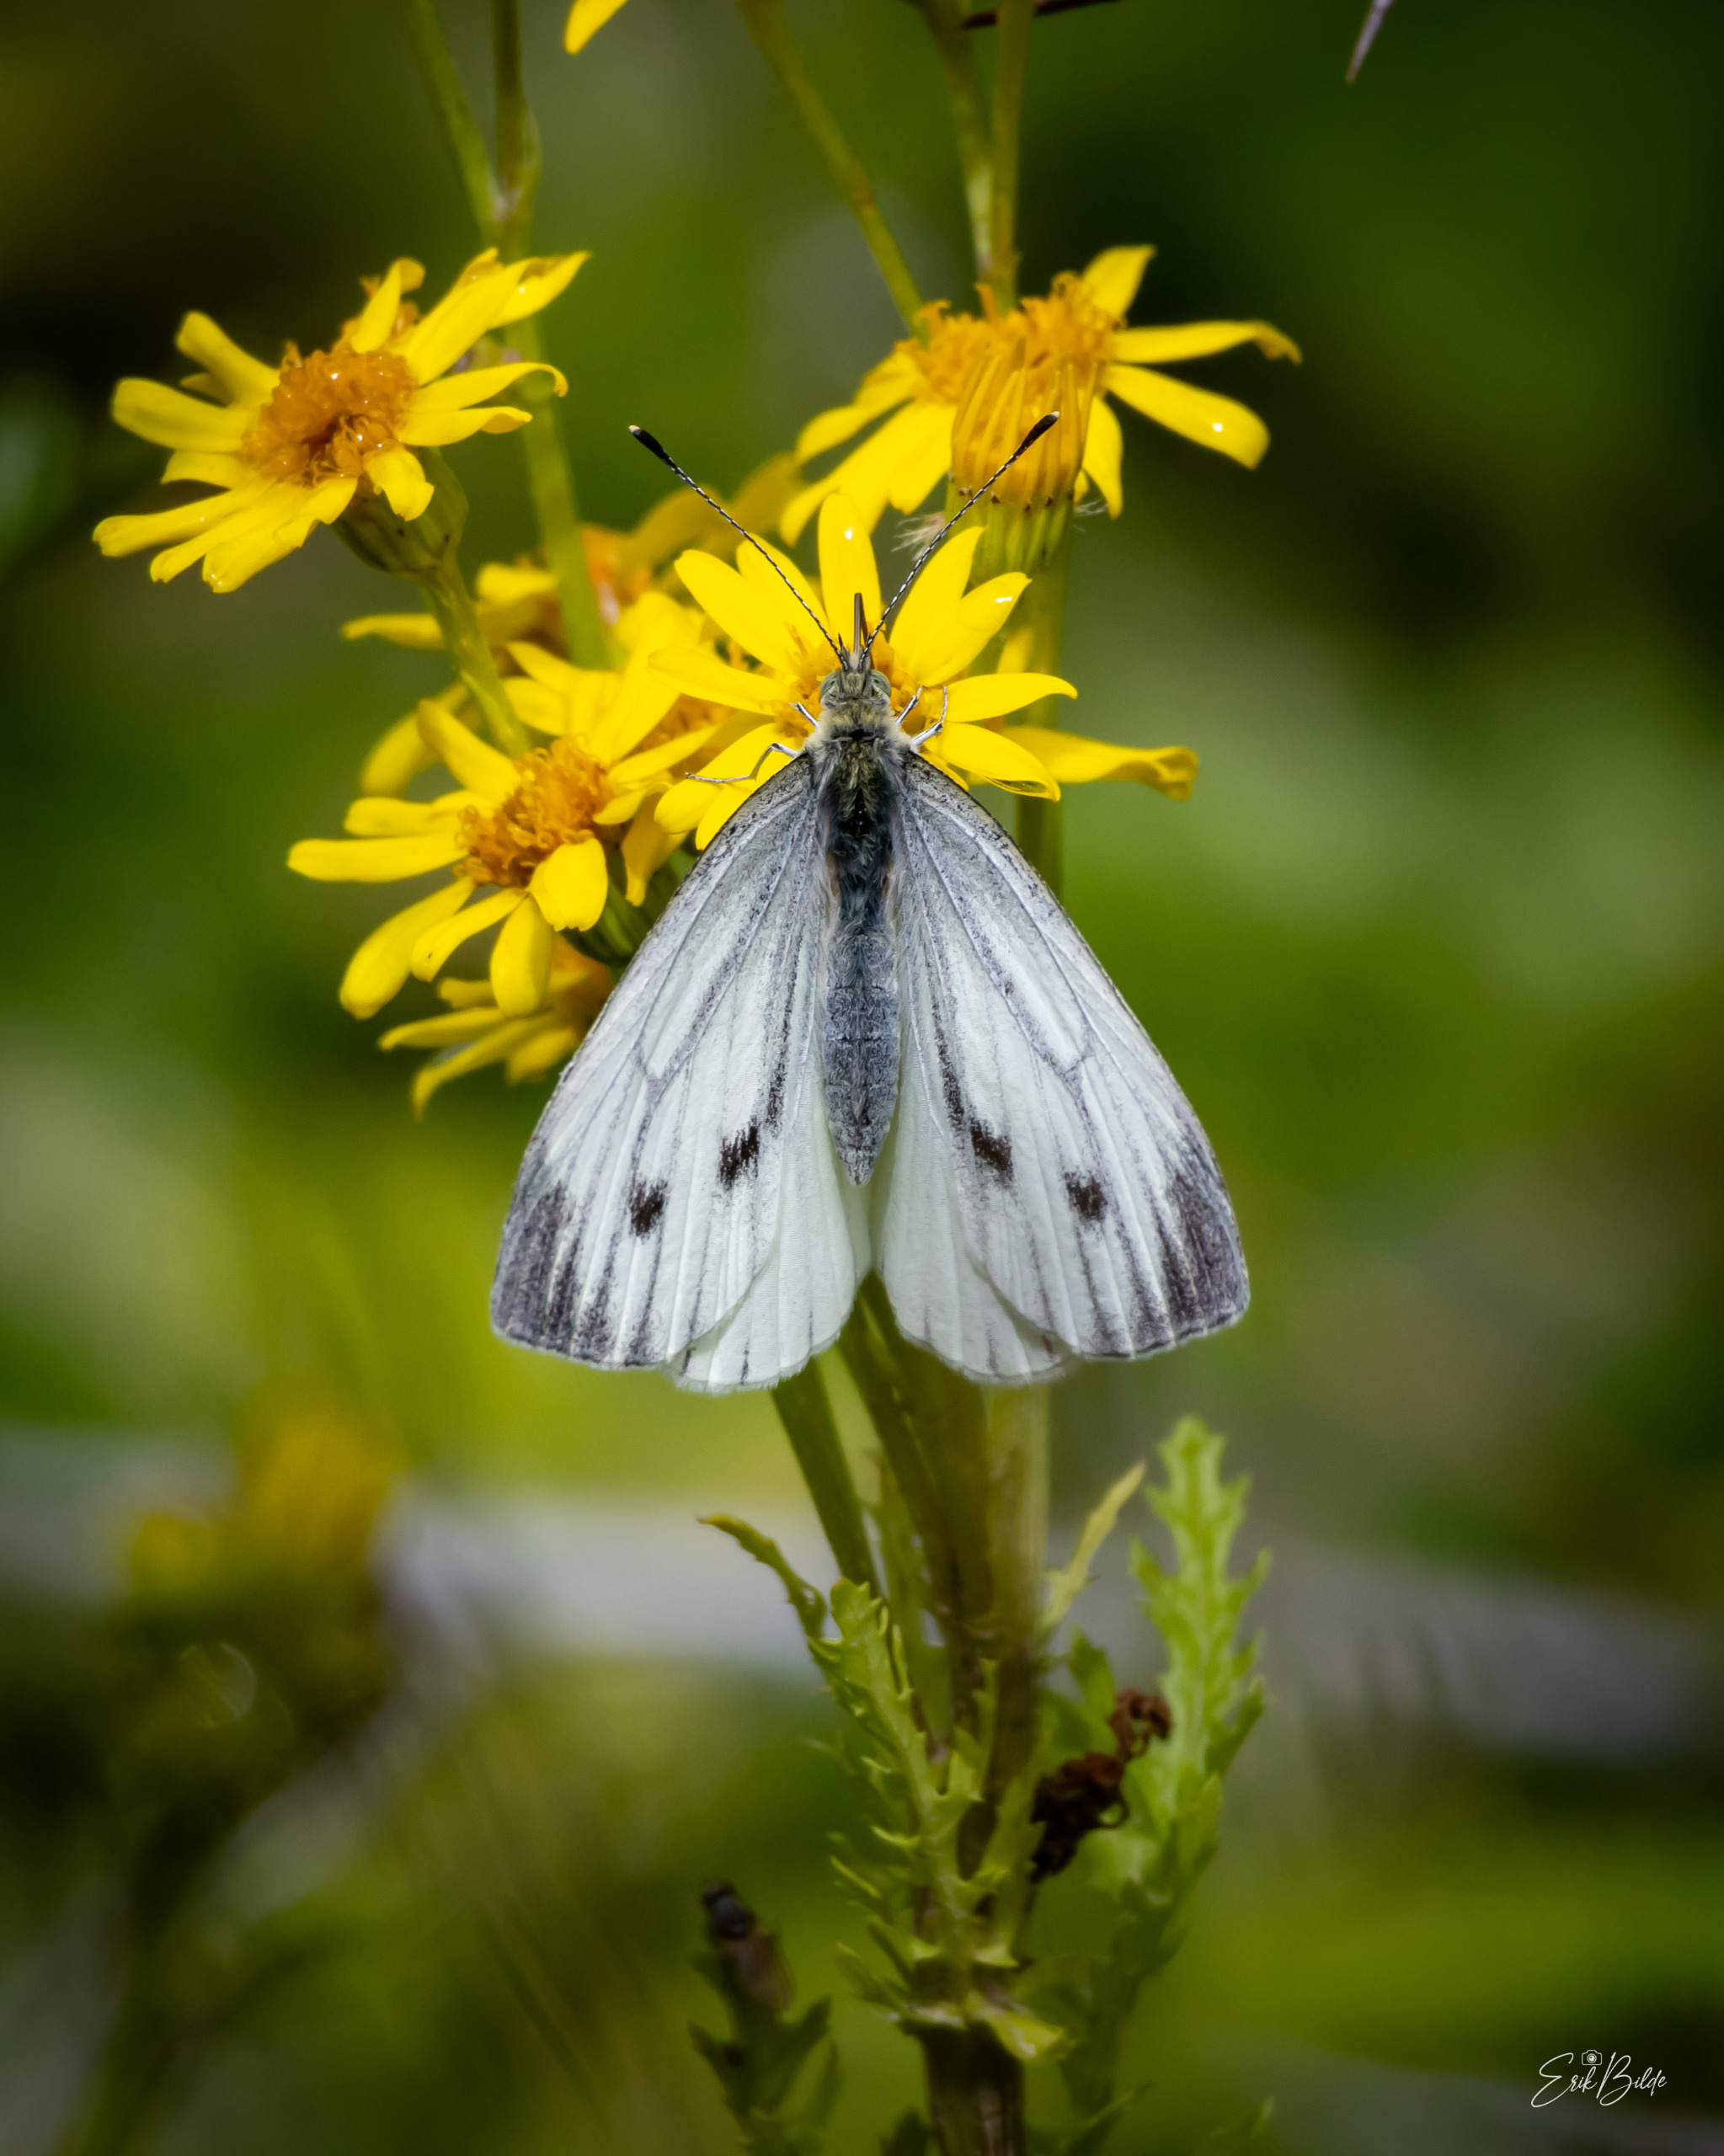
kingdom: Animalia
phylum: Arthropoda
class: Insecta
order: Lepidoptera
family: Pieridae
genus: Pieris
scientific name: Pieris napi
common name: Grønåret kålsommerfugl
